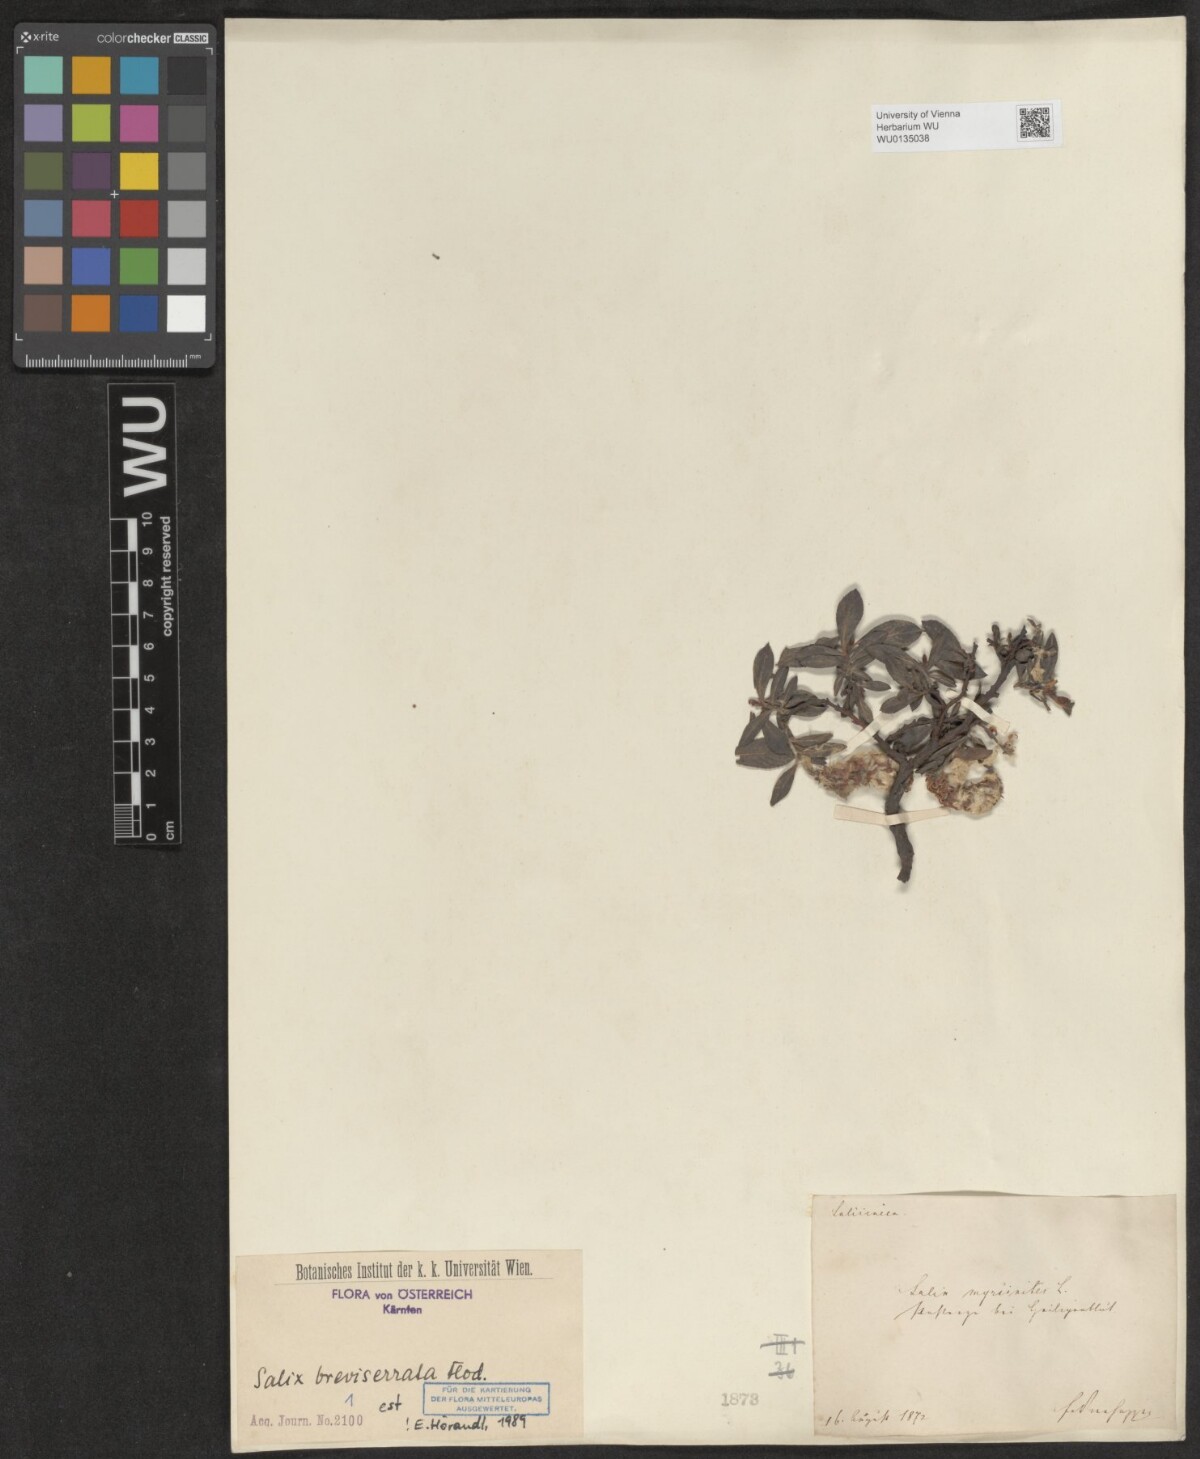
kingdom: Plantae
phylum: Tracheophyta
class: Magnoliopsida
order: Malpighiales
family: Salicaceae
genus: Salix
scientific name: Salix breviserrata
